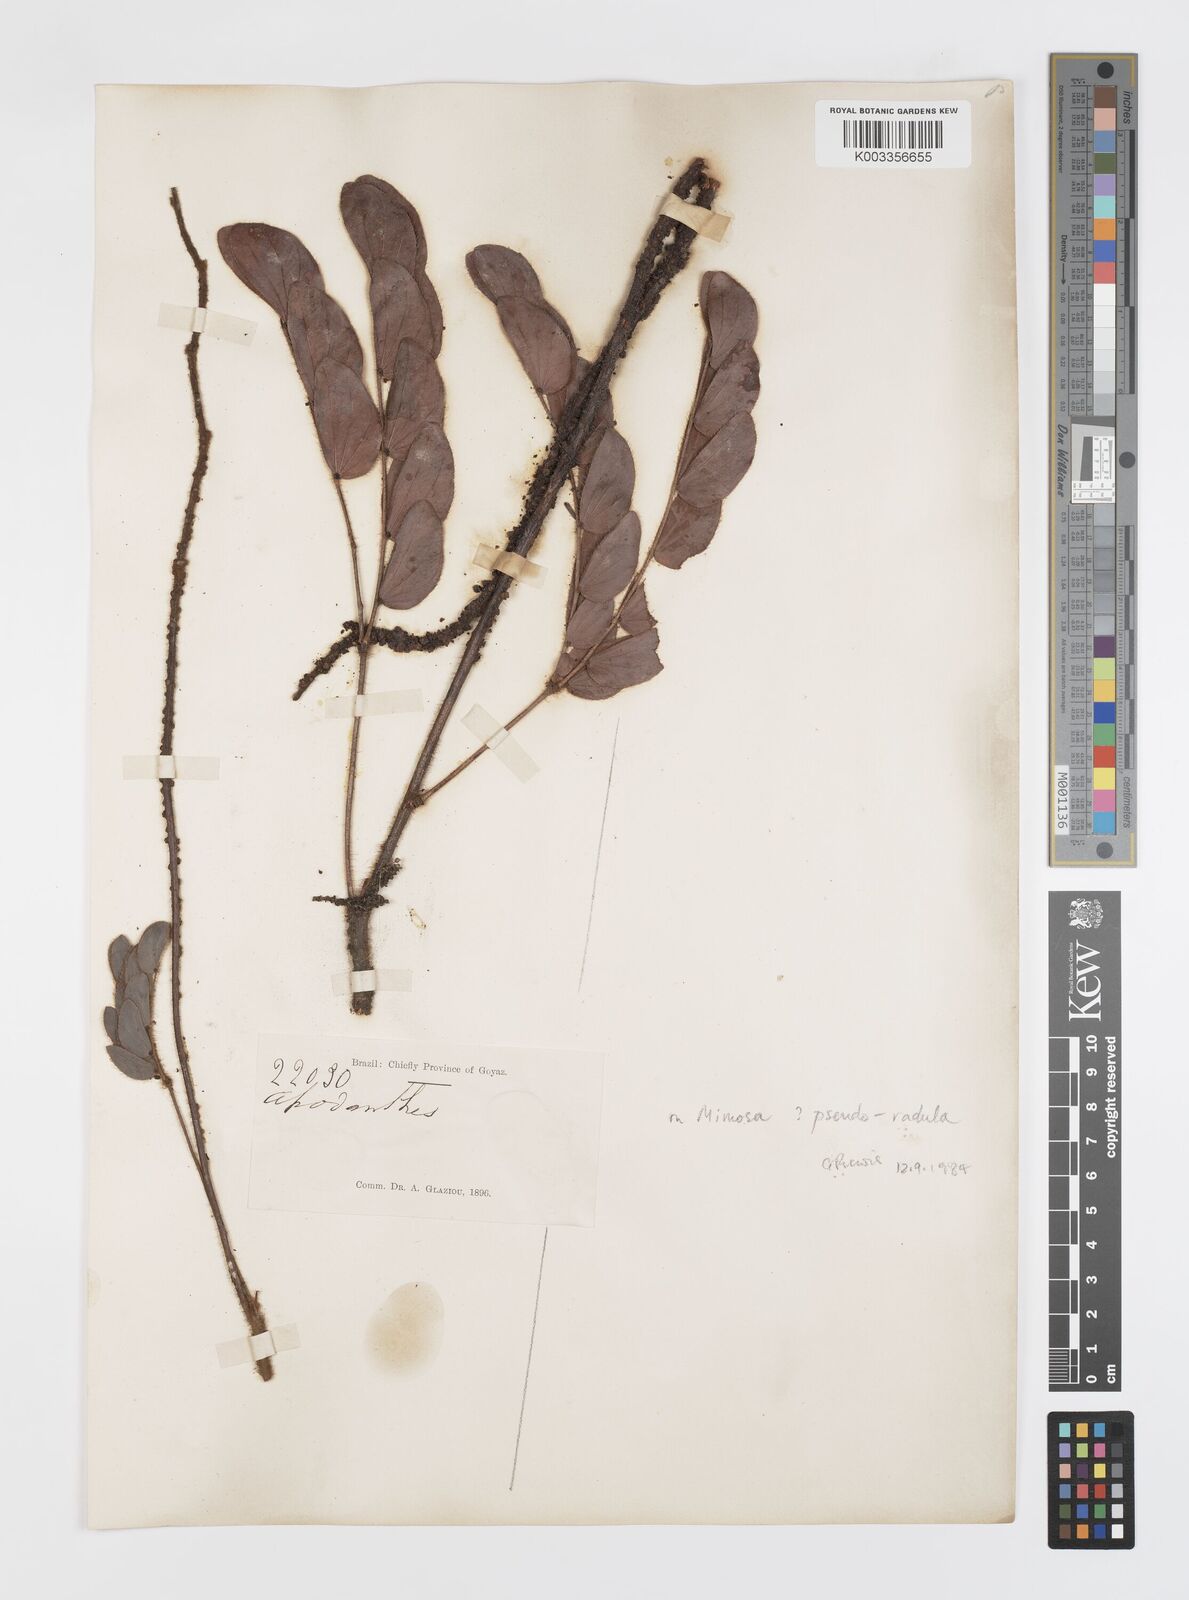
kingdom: Plantae
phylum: Tracheophyta
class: Magnoliopsida
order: Cucurbitales
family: Apodanthaceae
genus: Pilostyles
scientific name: Pilostyles blanchetii
